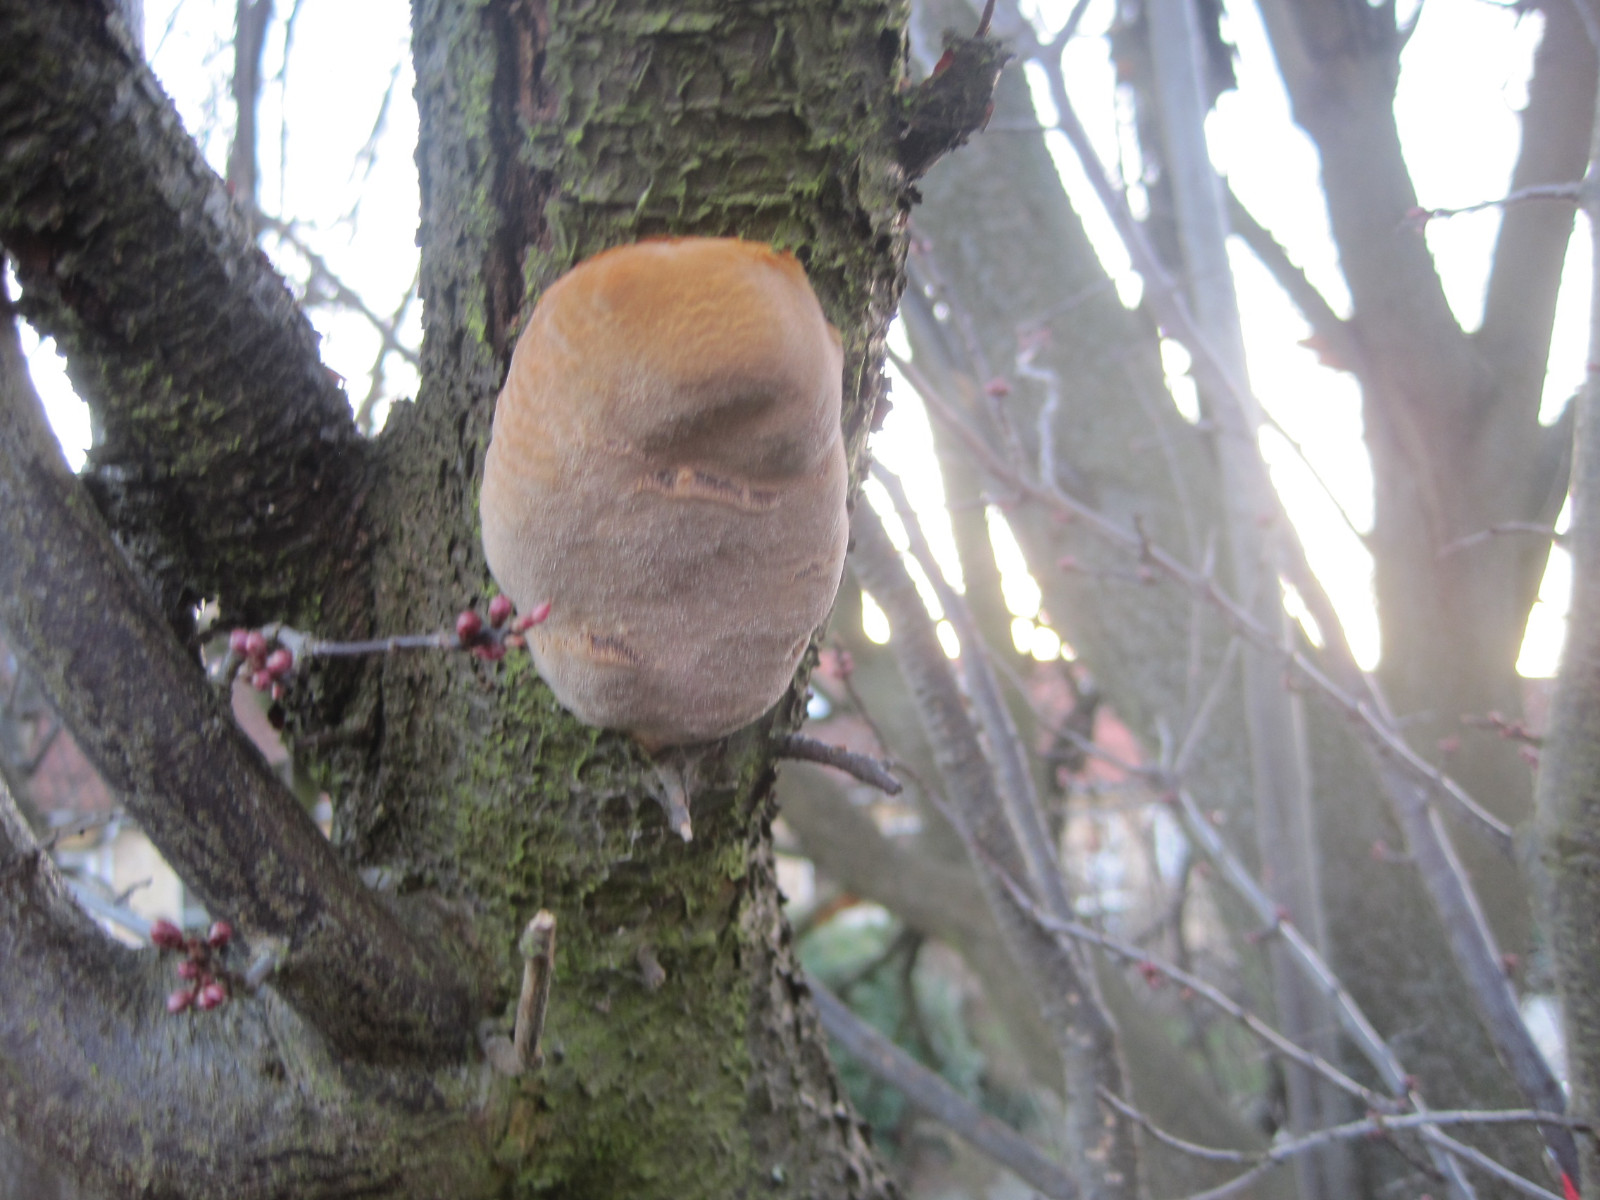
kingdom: Fungi
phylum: Basidiomycota
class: Agaricomycetes
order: Hymenochaetales
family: Hymenochaetaceae
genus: Phellinus
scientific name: Phellinus pomaceus
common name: blomme-ildporesvamp
